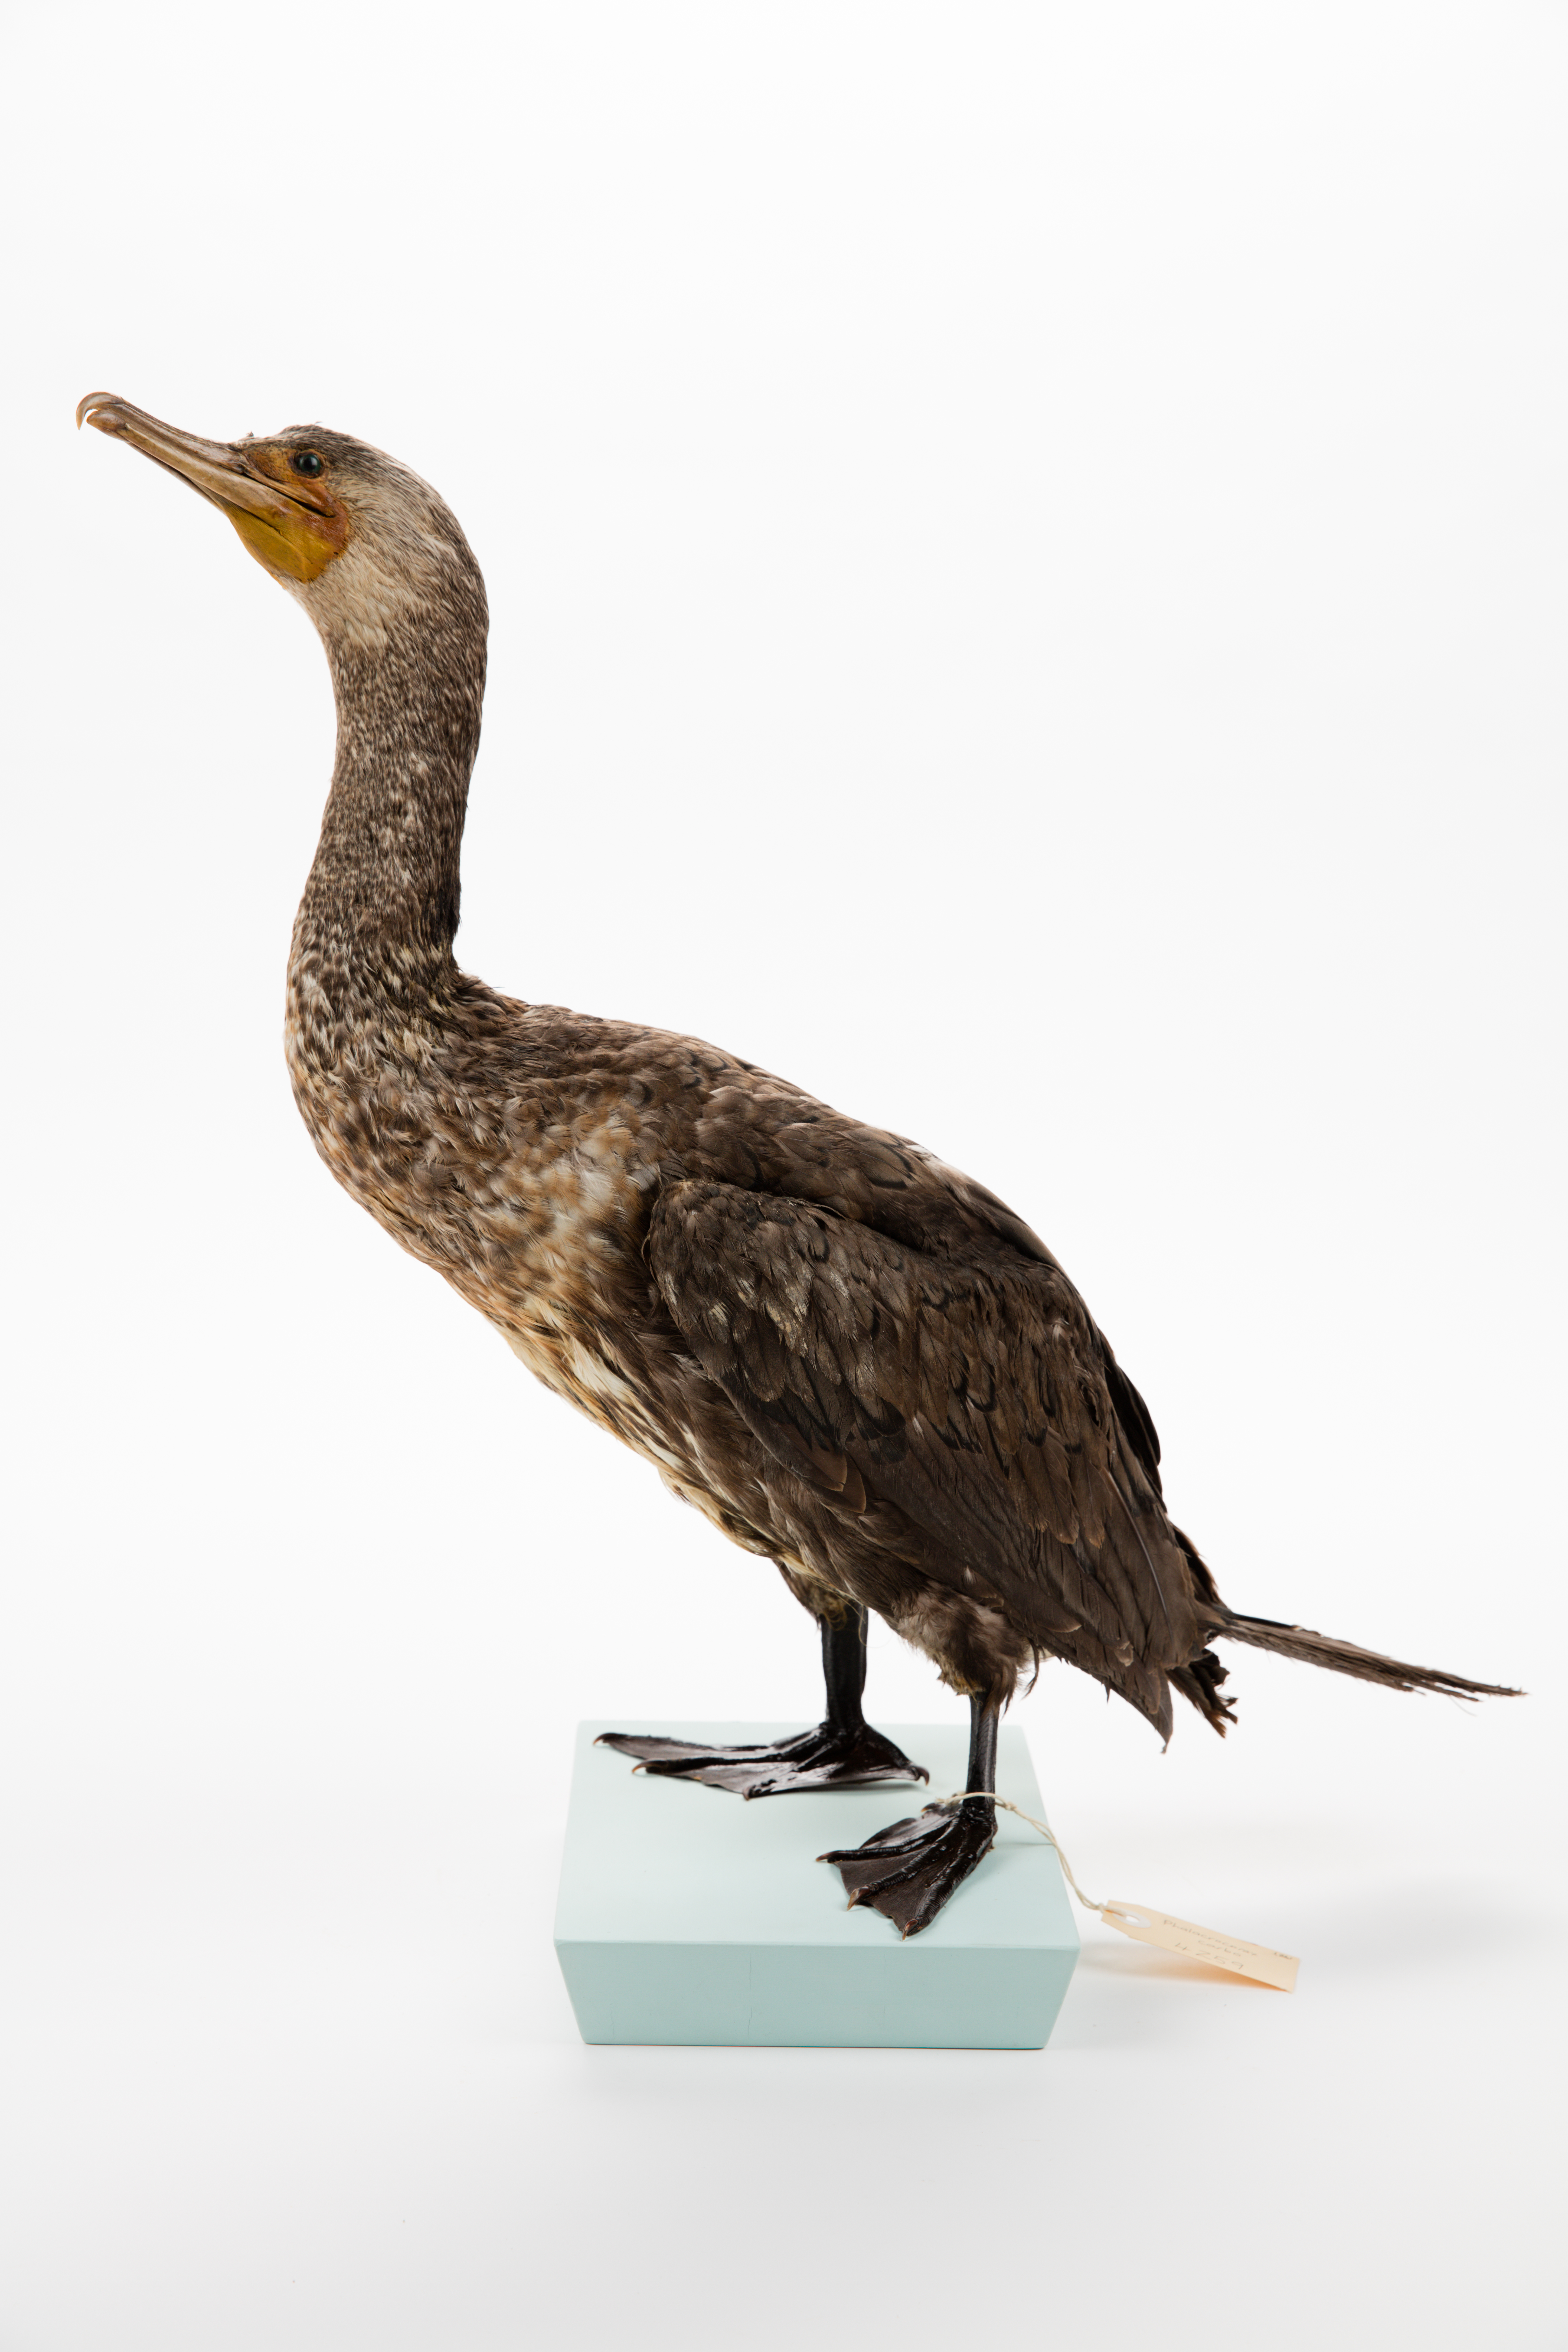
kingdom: Animalia
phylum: Chordata
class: Aves
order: Suliformes
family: Phalacrocoracidae
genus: Phalacrocorax
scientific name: Phalacrocorax carbo
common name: Great cormorant
